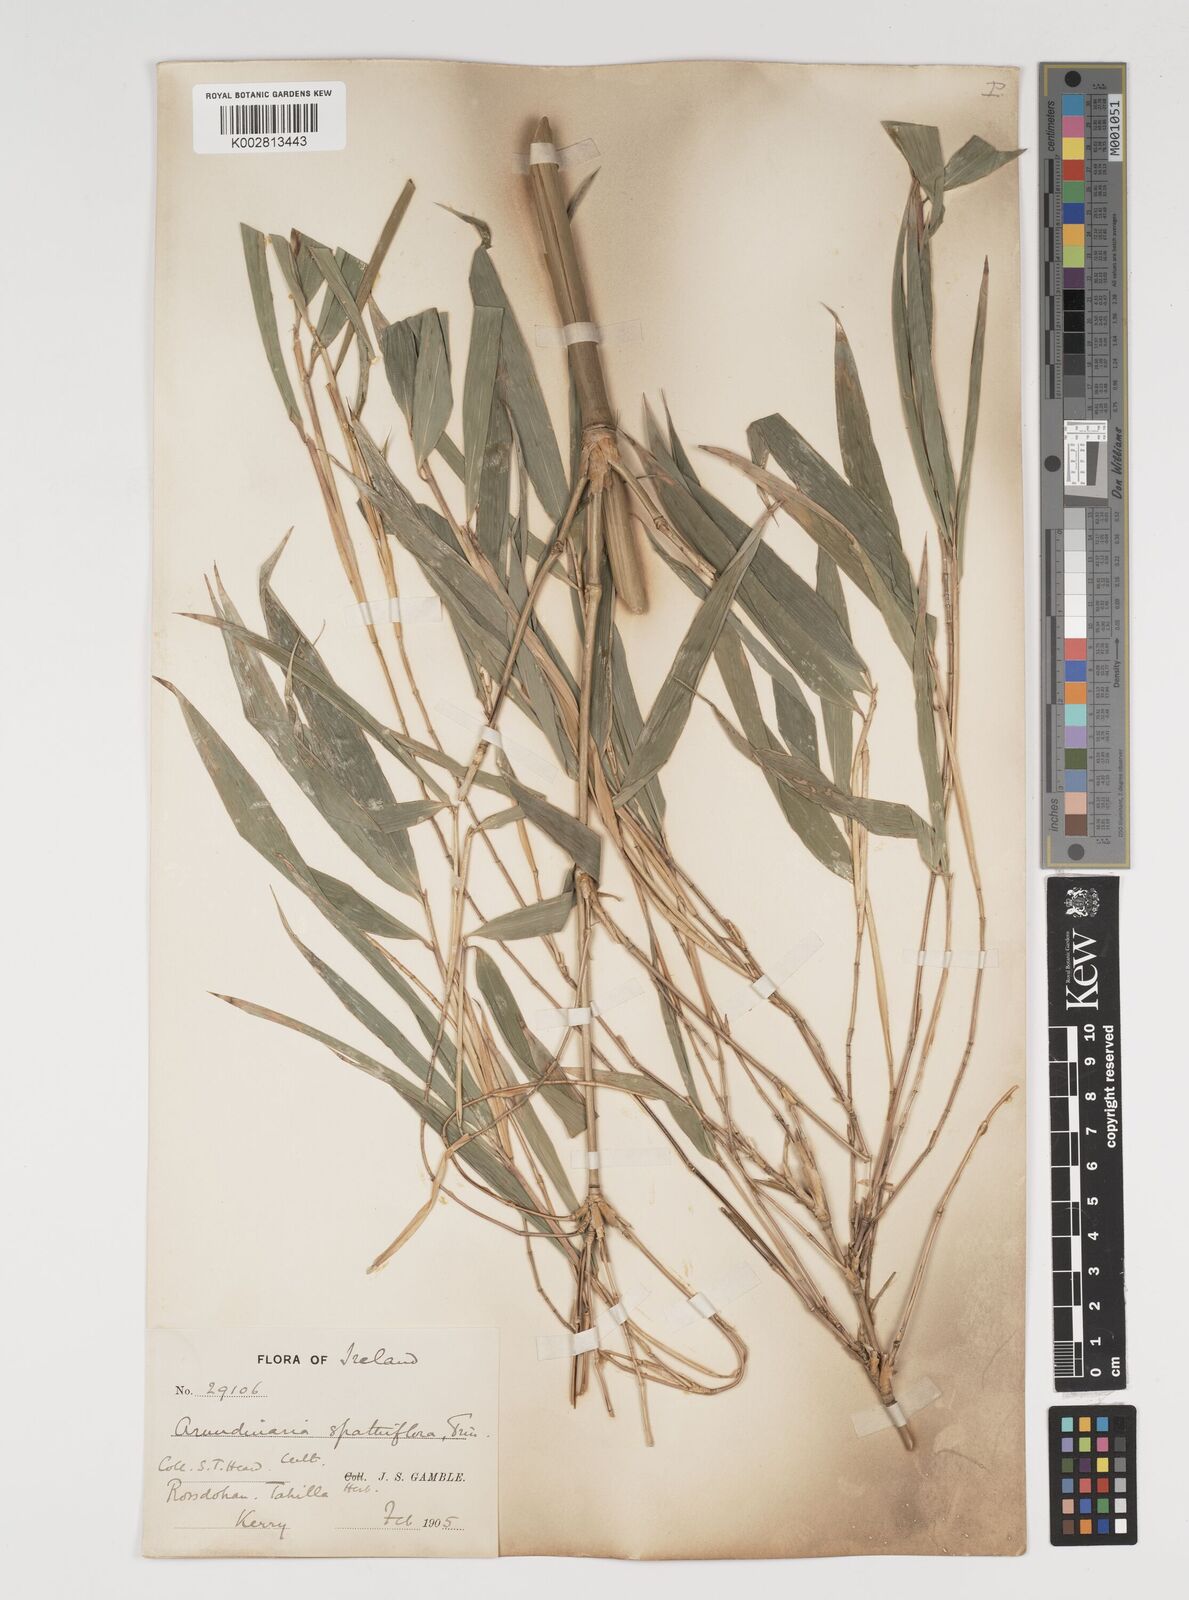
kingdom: Plantae
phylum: Tracheophyta
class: Liliopsida
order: Poales
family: Poaceae
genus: Thamnocalamus
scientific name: Thamnocalamus spathiflorus
